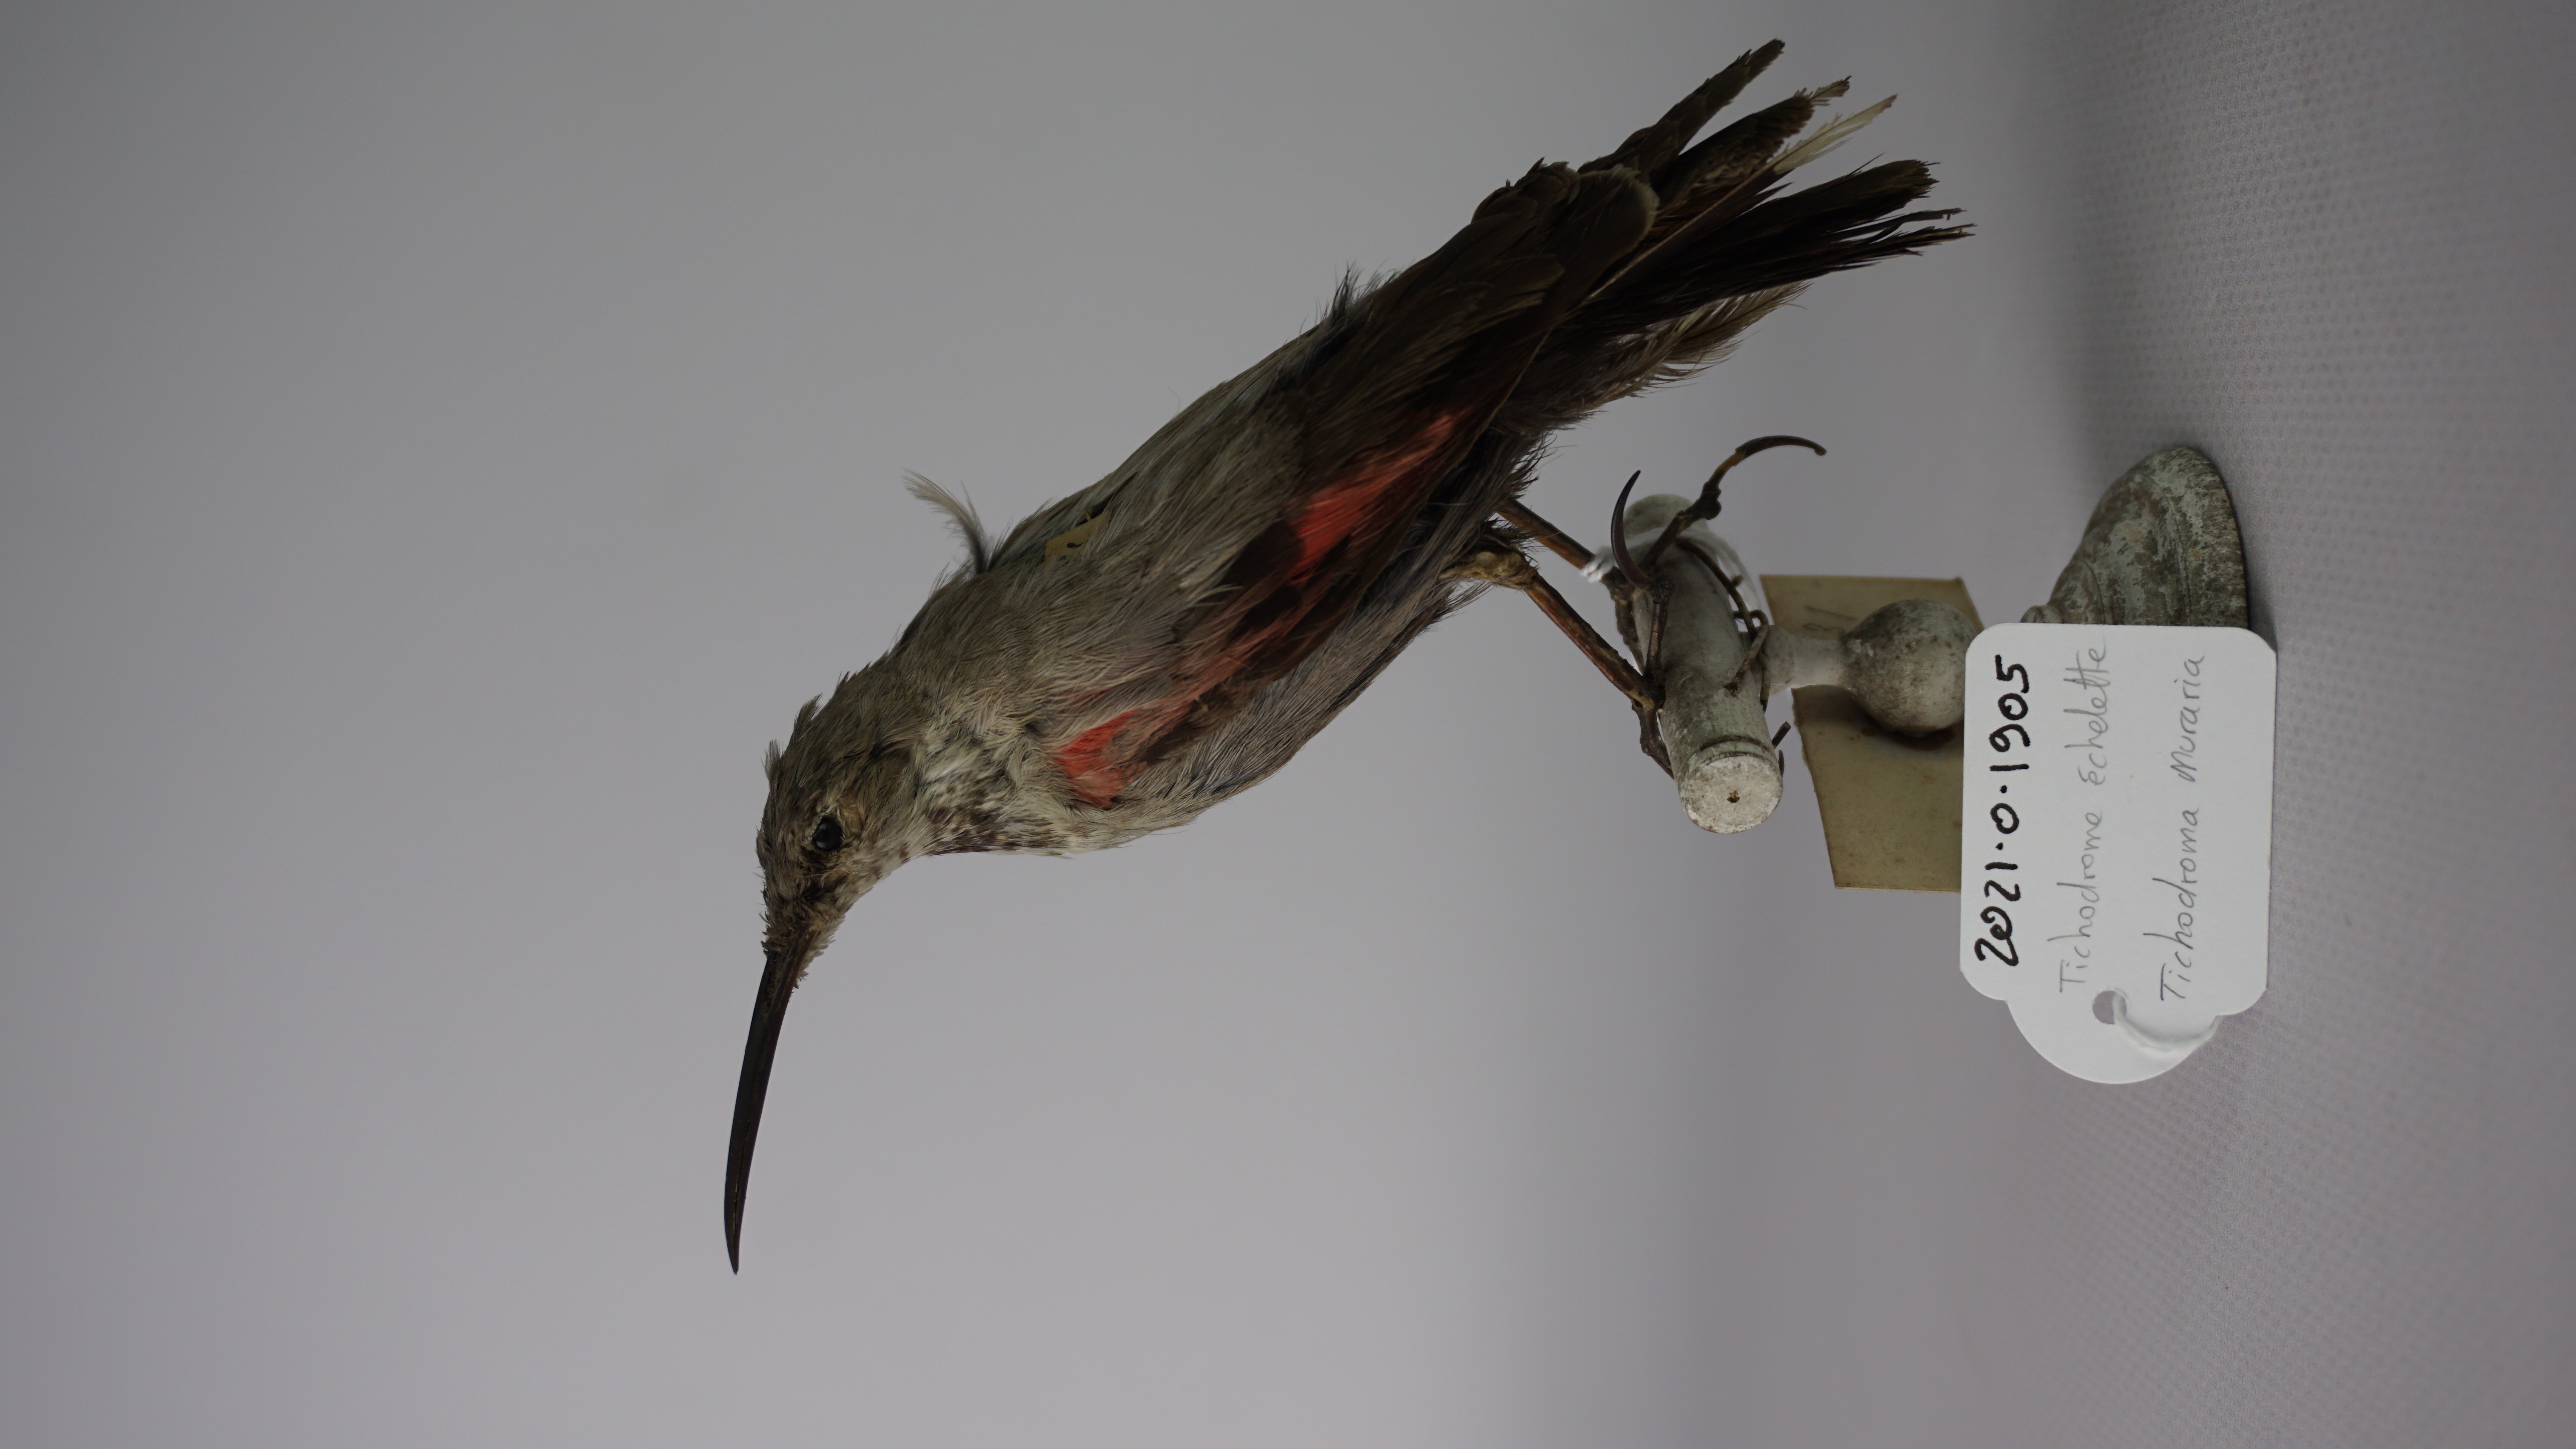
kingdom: Animalia
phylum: Chordata
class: Aves
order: Passeriformes
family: Tichodromidae
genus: Tichodroma
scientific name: Tichodroma muraria
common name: Wallcreeper
